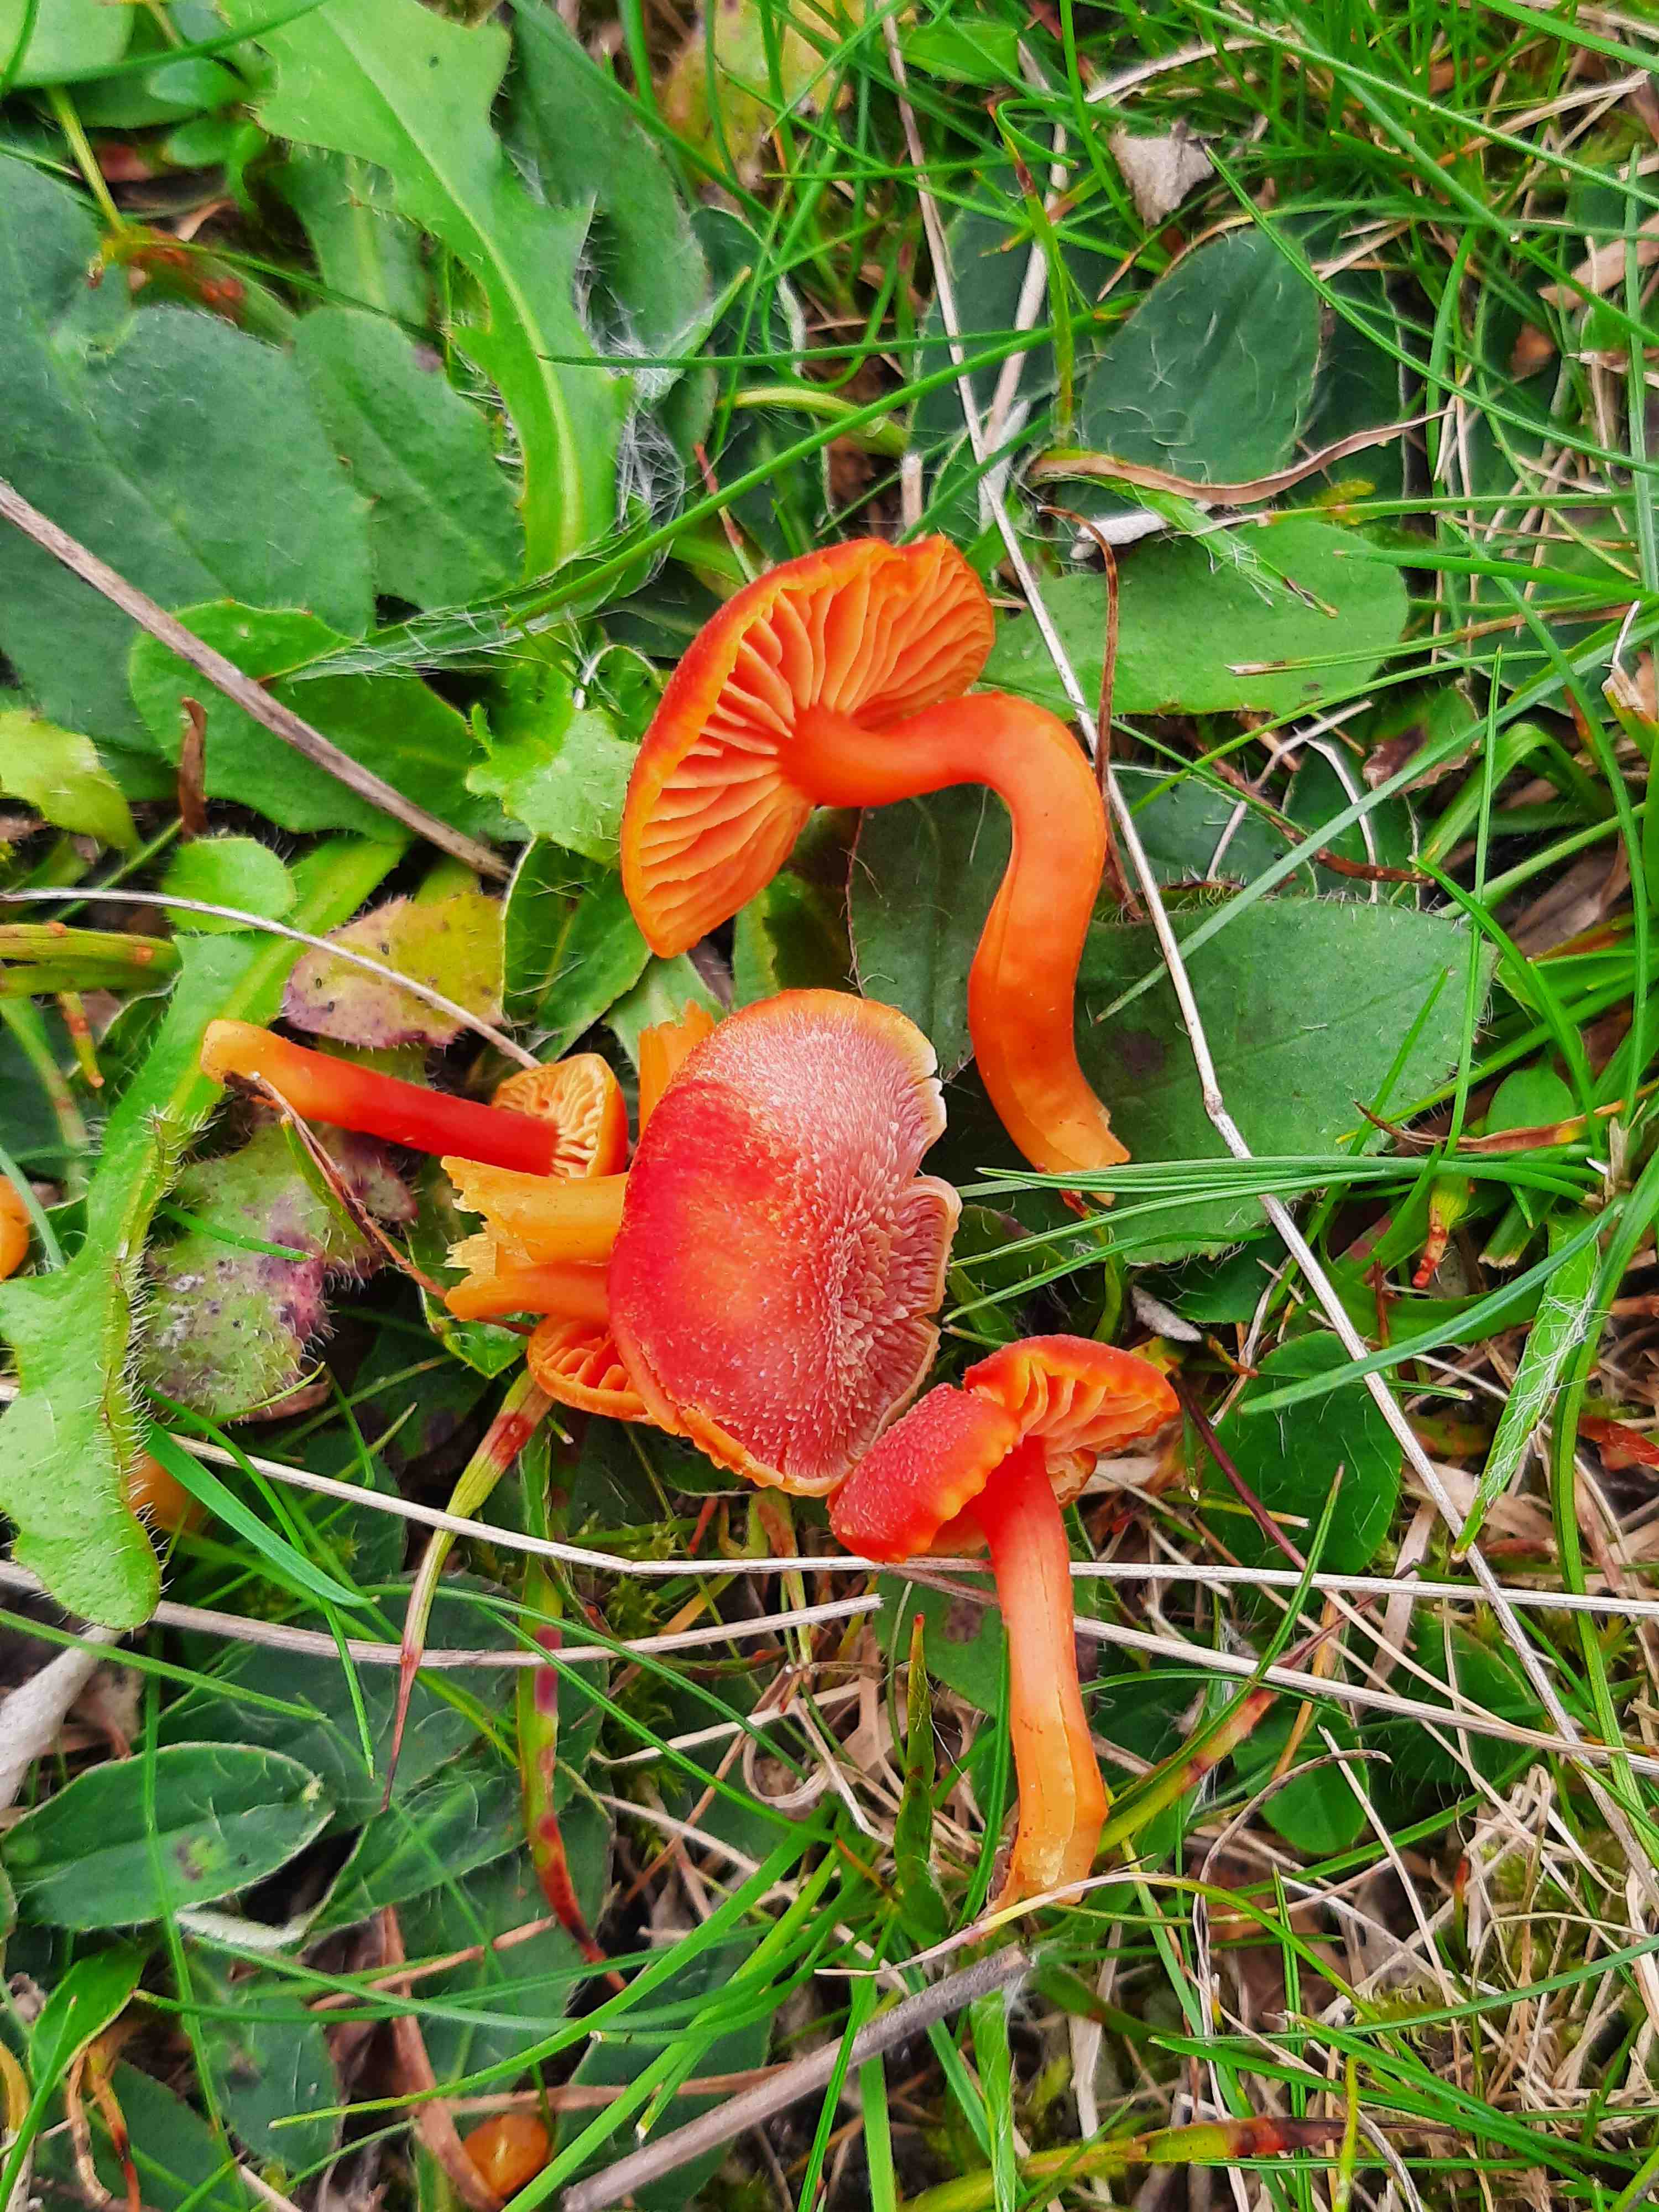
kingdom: Fungi
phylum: Basidiomycota
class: Agaricomycetes
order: Agaricales
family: Hygrophoraceae
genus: Hygrocybe
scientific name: Hygrocybe miniata
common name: mønje-vokshat
